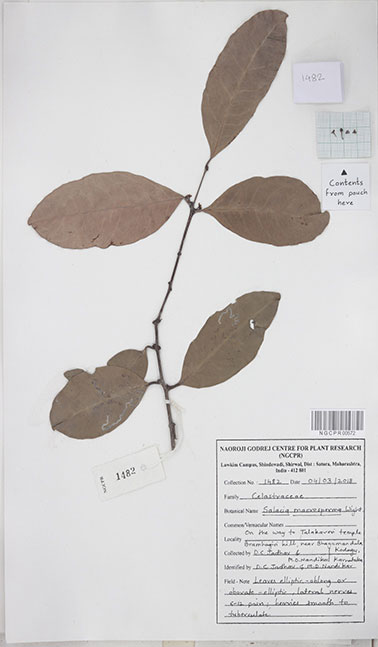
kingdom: Plantae
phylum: Tracheophyta
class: Magnoliopsida
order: Celastrales
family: Celastraceae
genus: Salacia
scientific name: Salacia macrosperma
